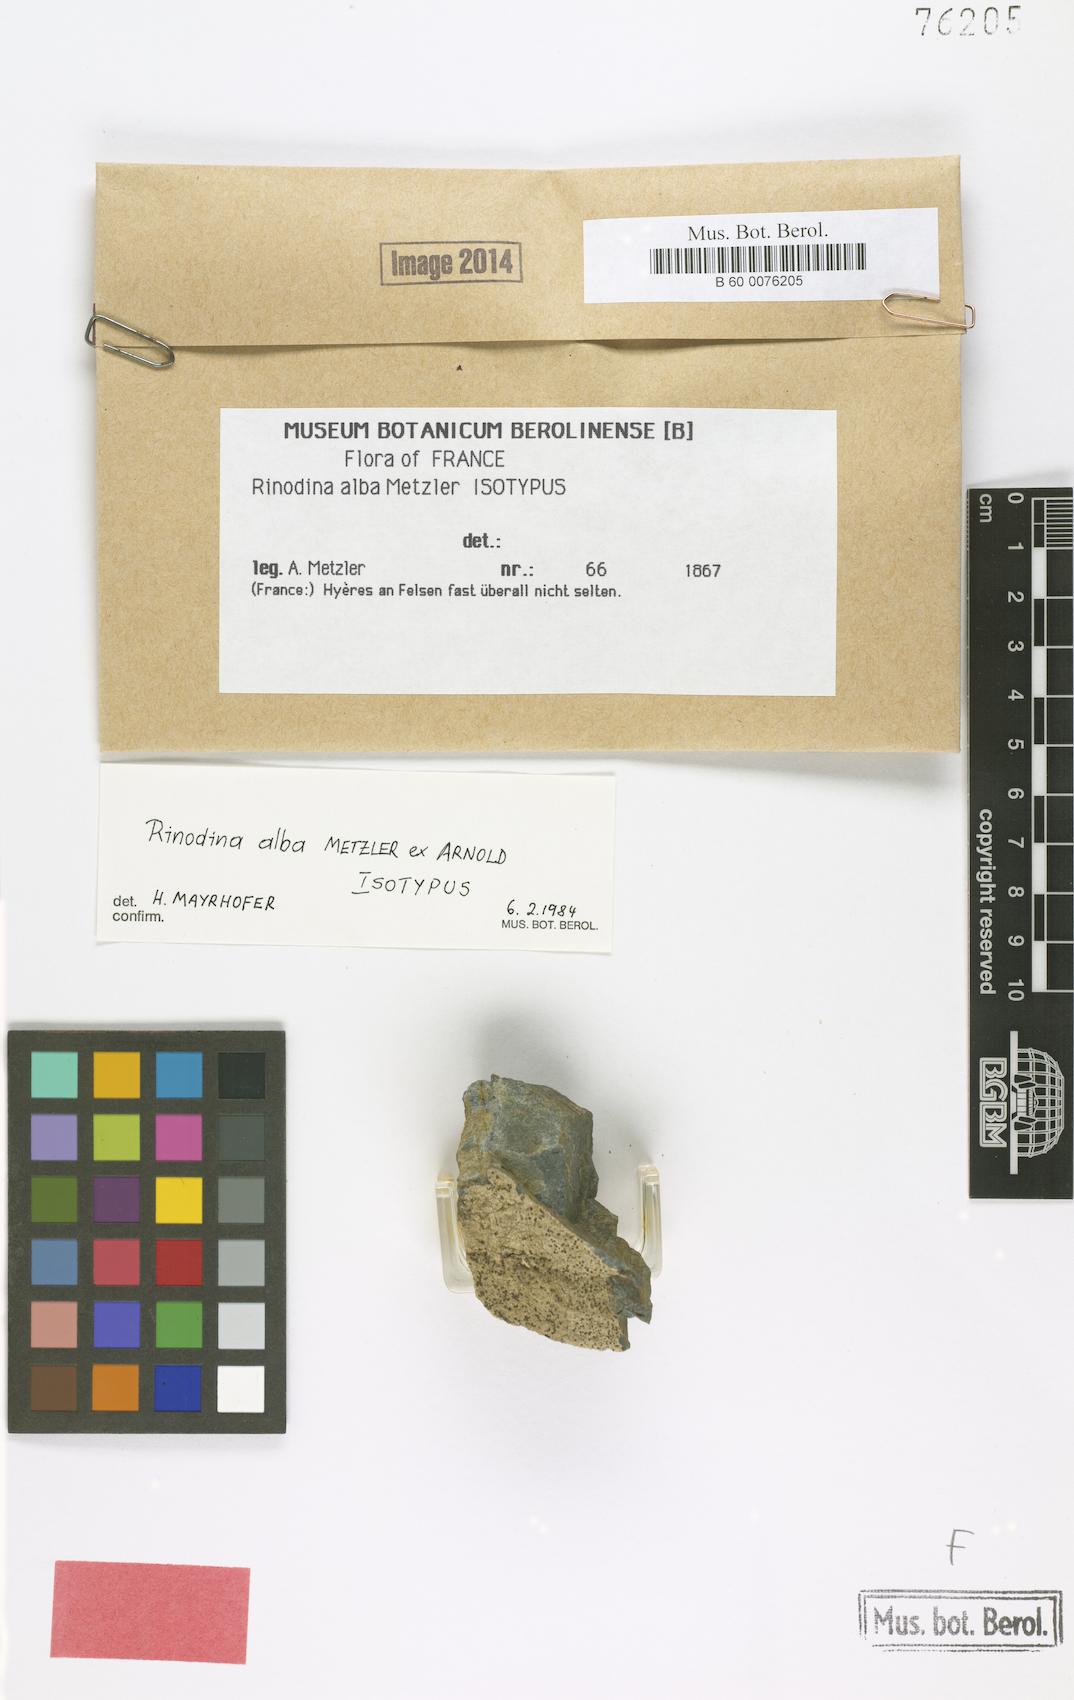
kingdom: Fungi
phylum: Ascomycota
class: Lecanoromycetes
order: Caliciales
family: Physciaceae
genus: Helmutiopsis
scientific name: Helmutiopsis alba
